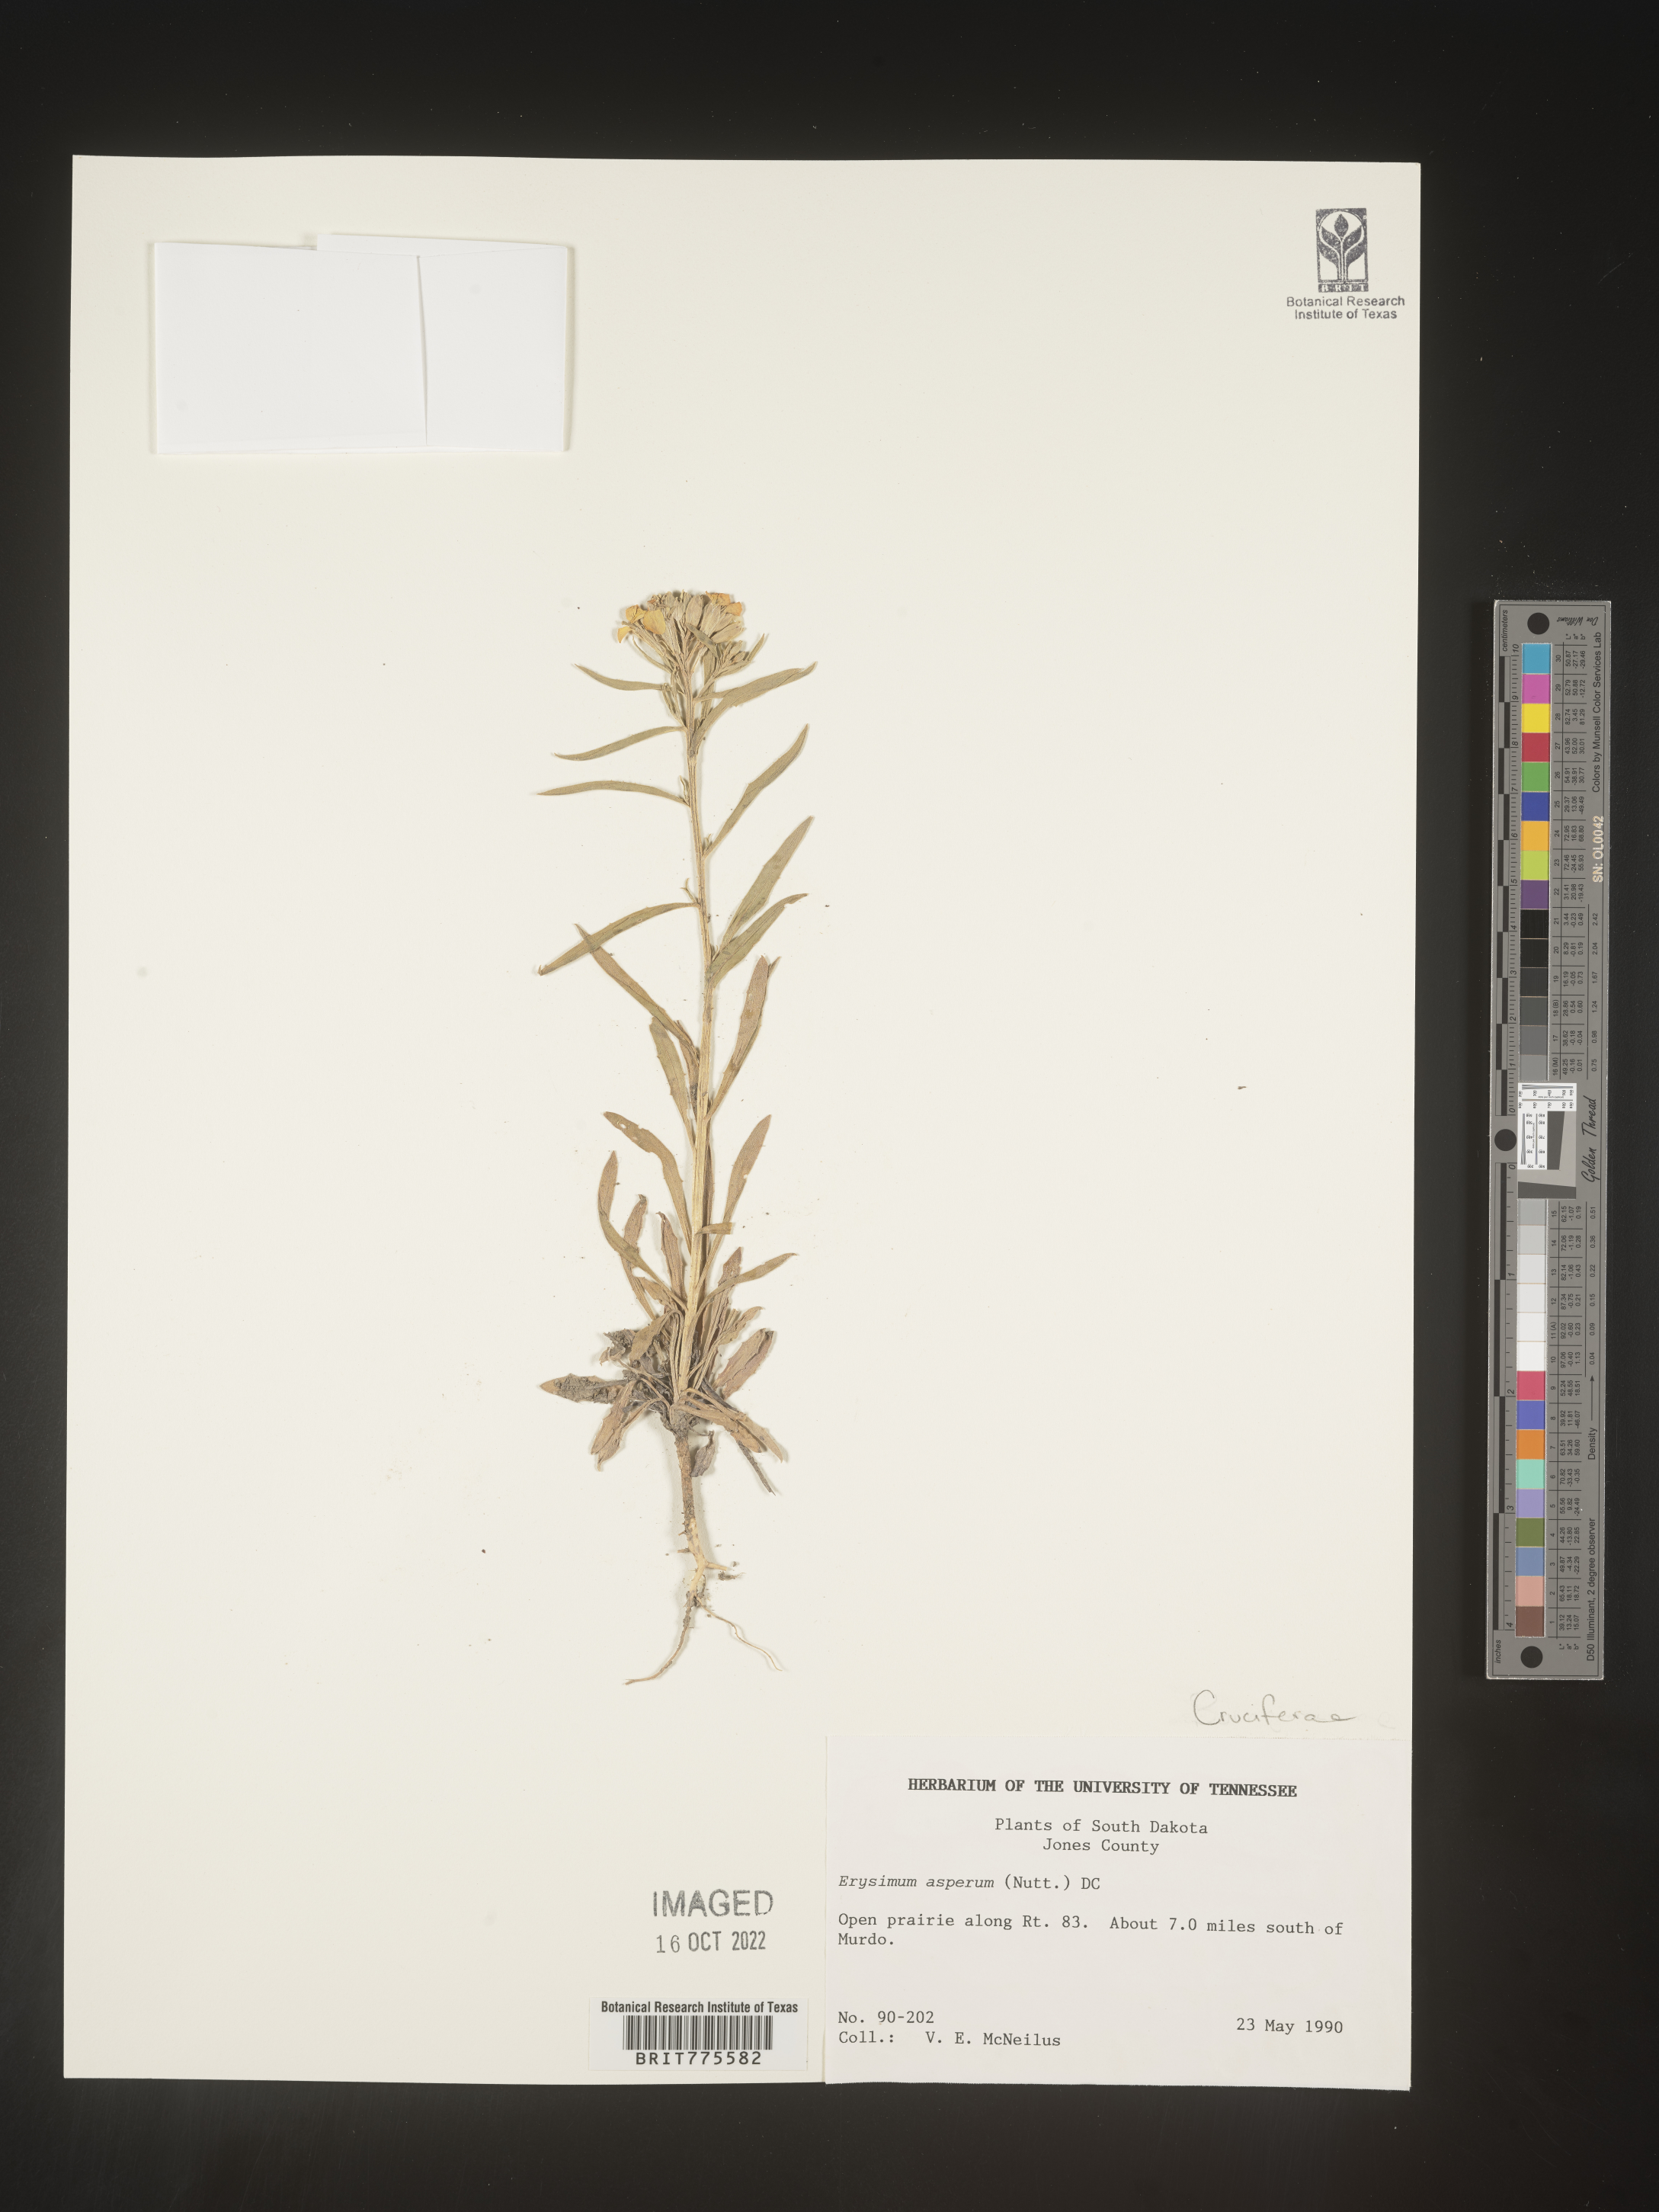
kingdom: Plantae
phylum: Tracheophyta
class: Magnoliopsida
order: Brassicales
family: Brassicaceae
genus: Erysimum
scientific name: Erysimum capitatum
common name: Western wallflower
